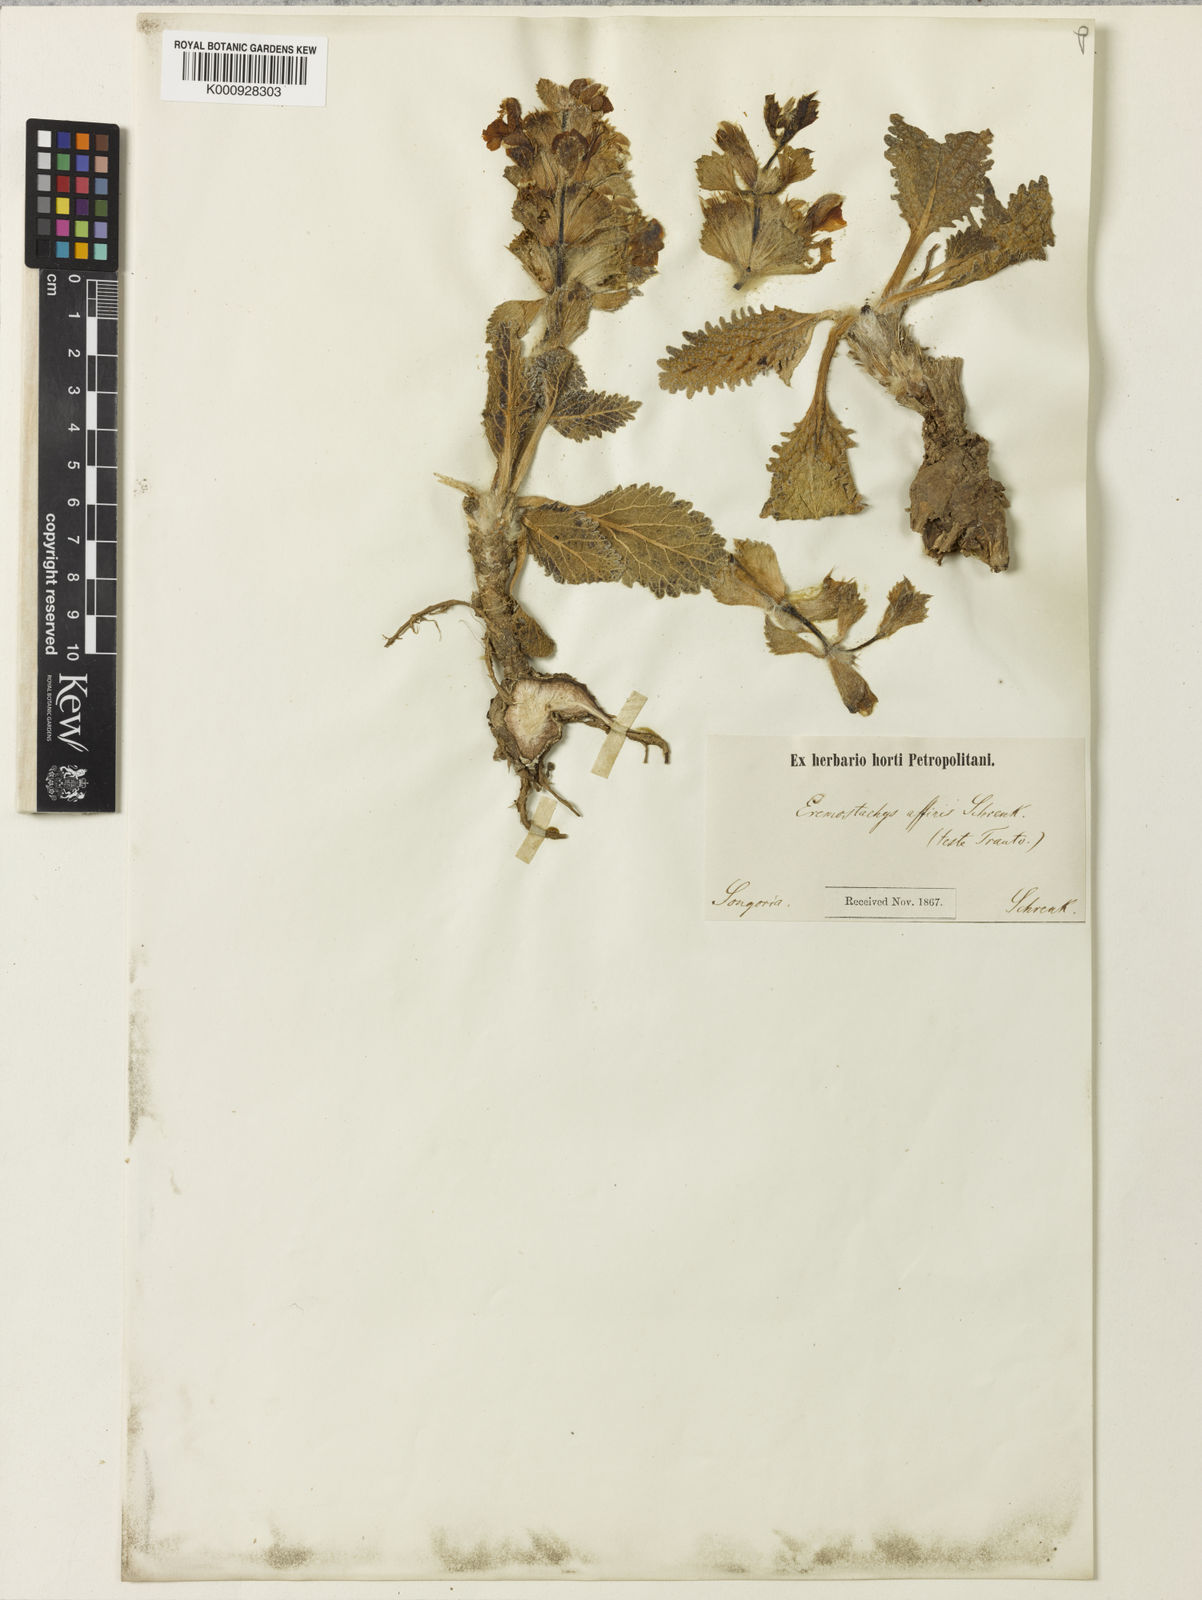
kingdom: Plantae
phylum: Tracheophyta
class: Magnoliopsida
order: Lamiales
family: Lamiaceae
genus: Phlomoides
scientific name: Phlomoides affinis
